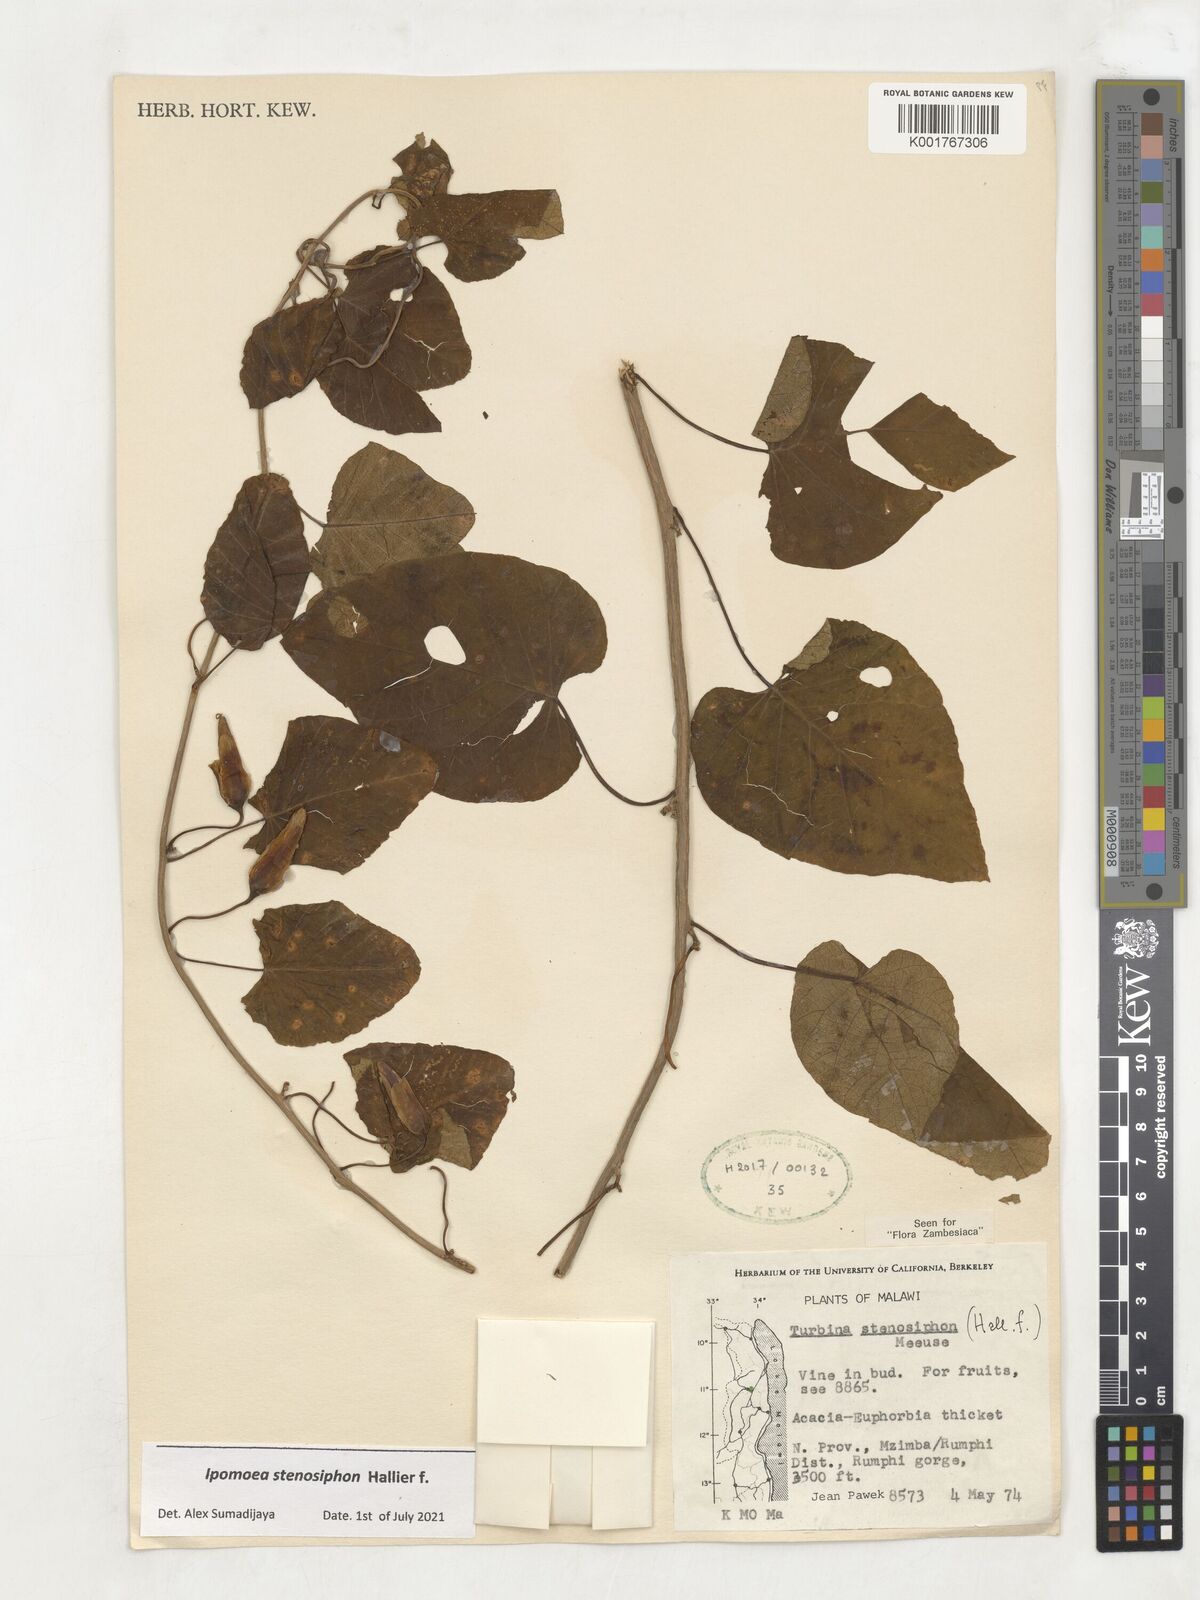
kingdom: Plantae
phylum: Tracheophyta
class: Magnoliopsida
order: Solanales
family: Convolvulaceae
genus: Ipomoea
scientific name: Ipomoea stenosiphon
